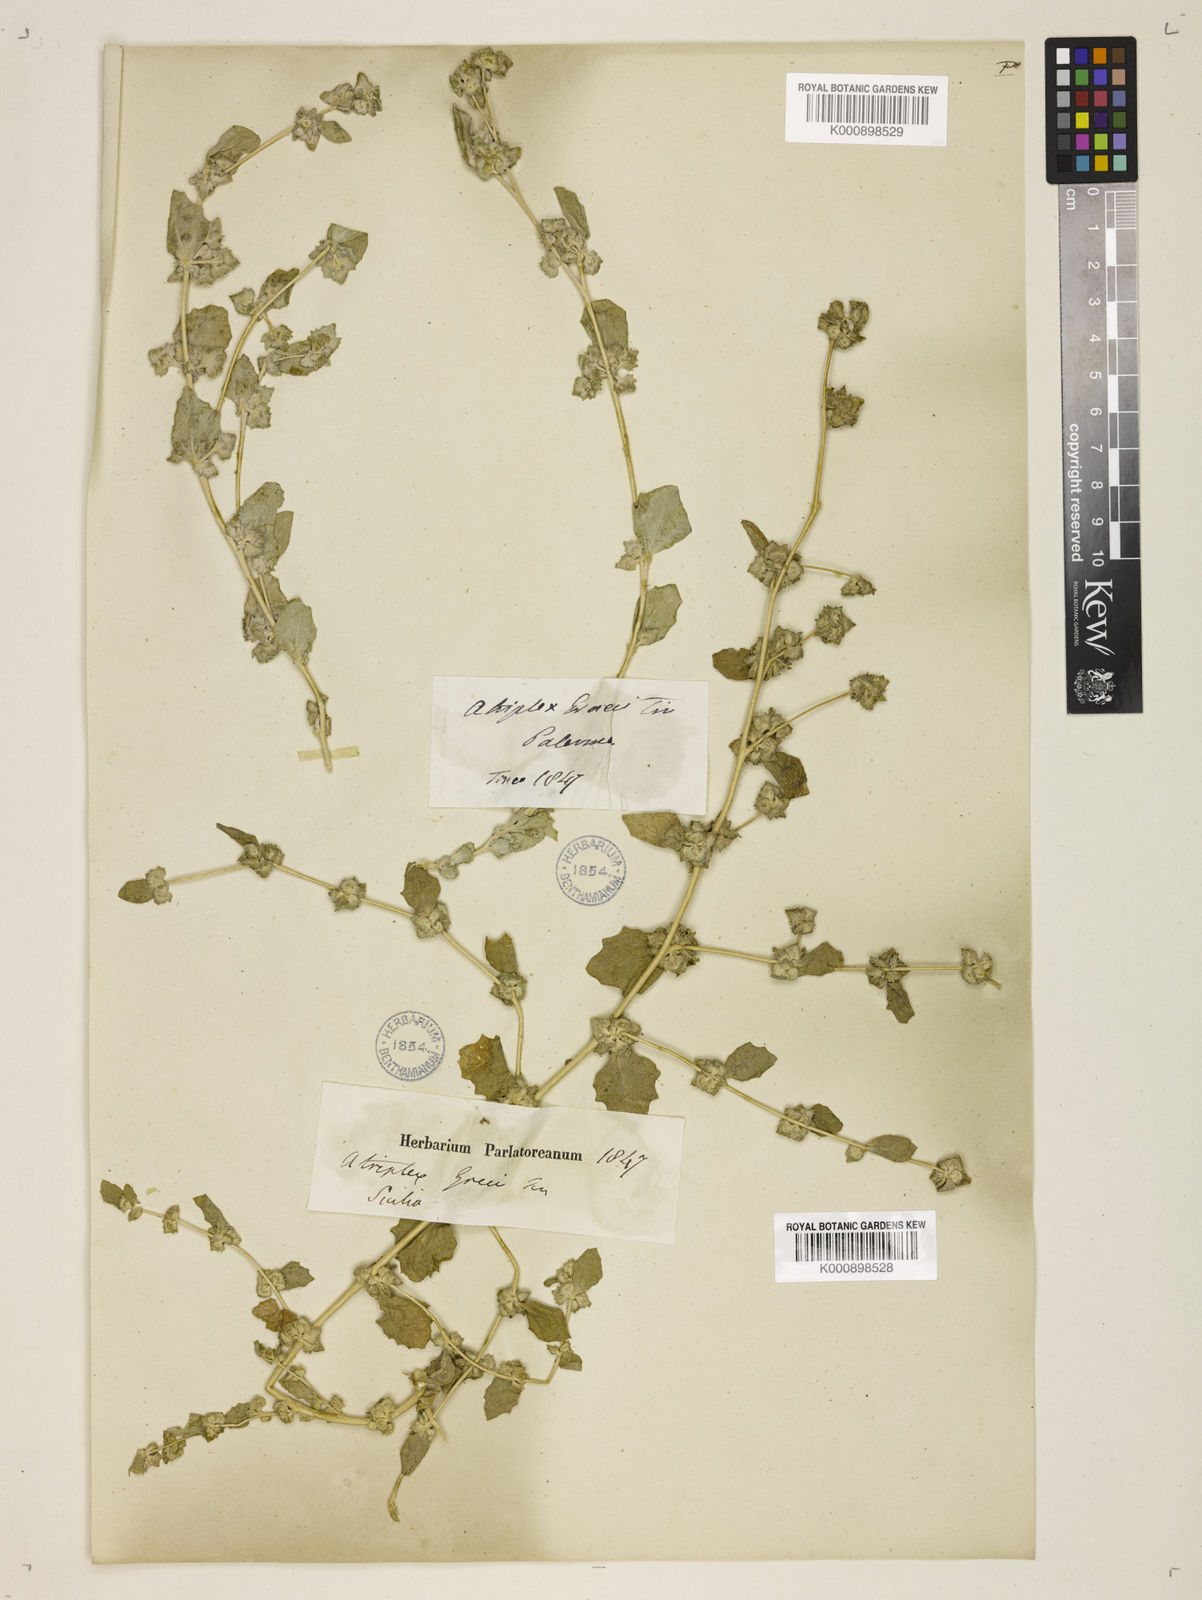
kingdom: Plantae
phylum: Tracheophyta
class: Magnoliopsida
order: Caryophyllales
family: Amaranthaceae
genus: Atriplex
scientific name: Atriplex rosea
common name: Tumbling saltweed
